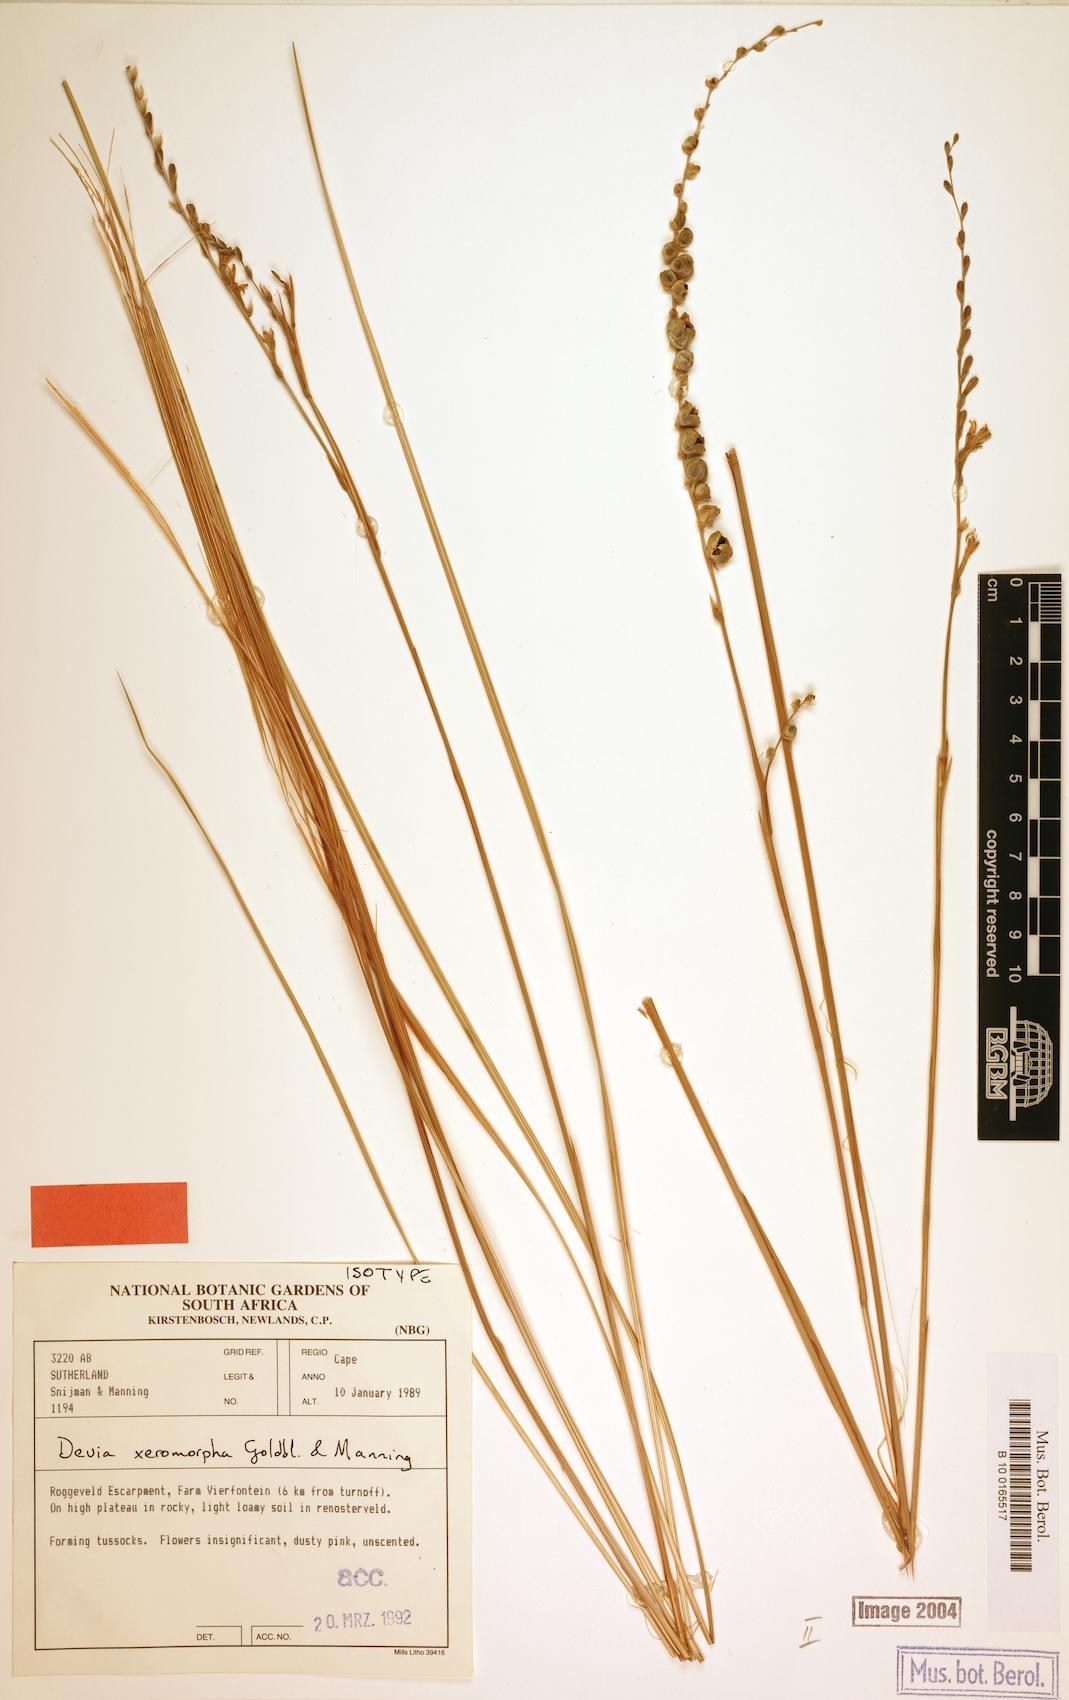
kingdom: Plantae
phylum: Tracheophyta
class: Liliopsida
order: Asparagales
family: Iridaceae
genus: Devia
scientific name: Devia xeromorpha
